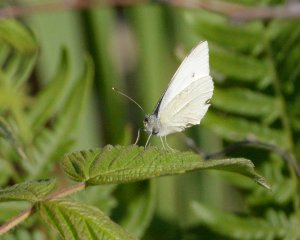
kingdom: Animalia
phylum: Arthropoda
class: Insecta
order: Lepidoptera
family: Pieridae
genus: Pieris
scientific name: Pieris rapae
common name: Cabbage White
